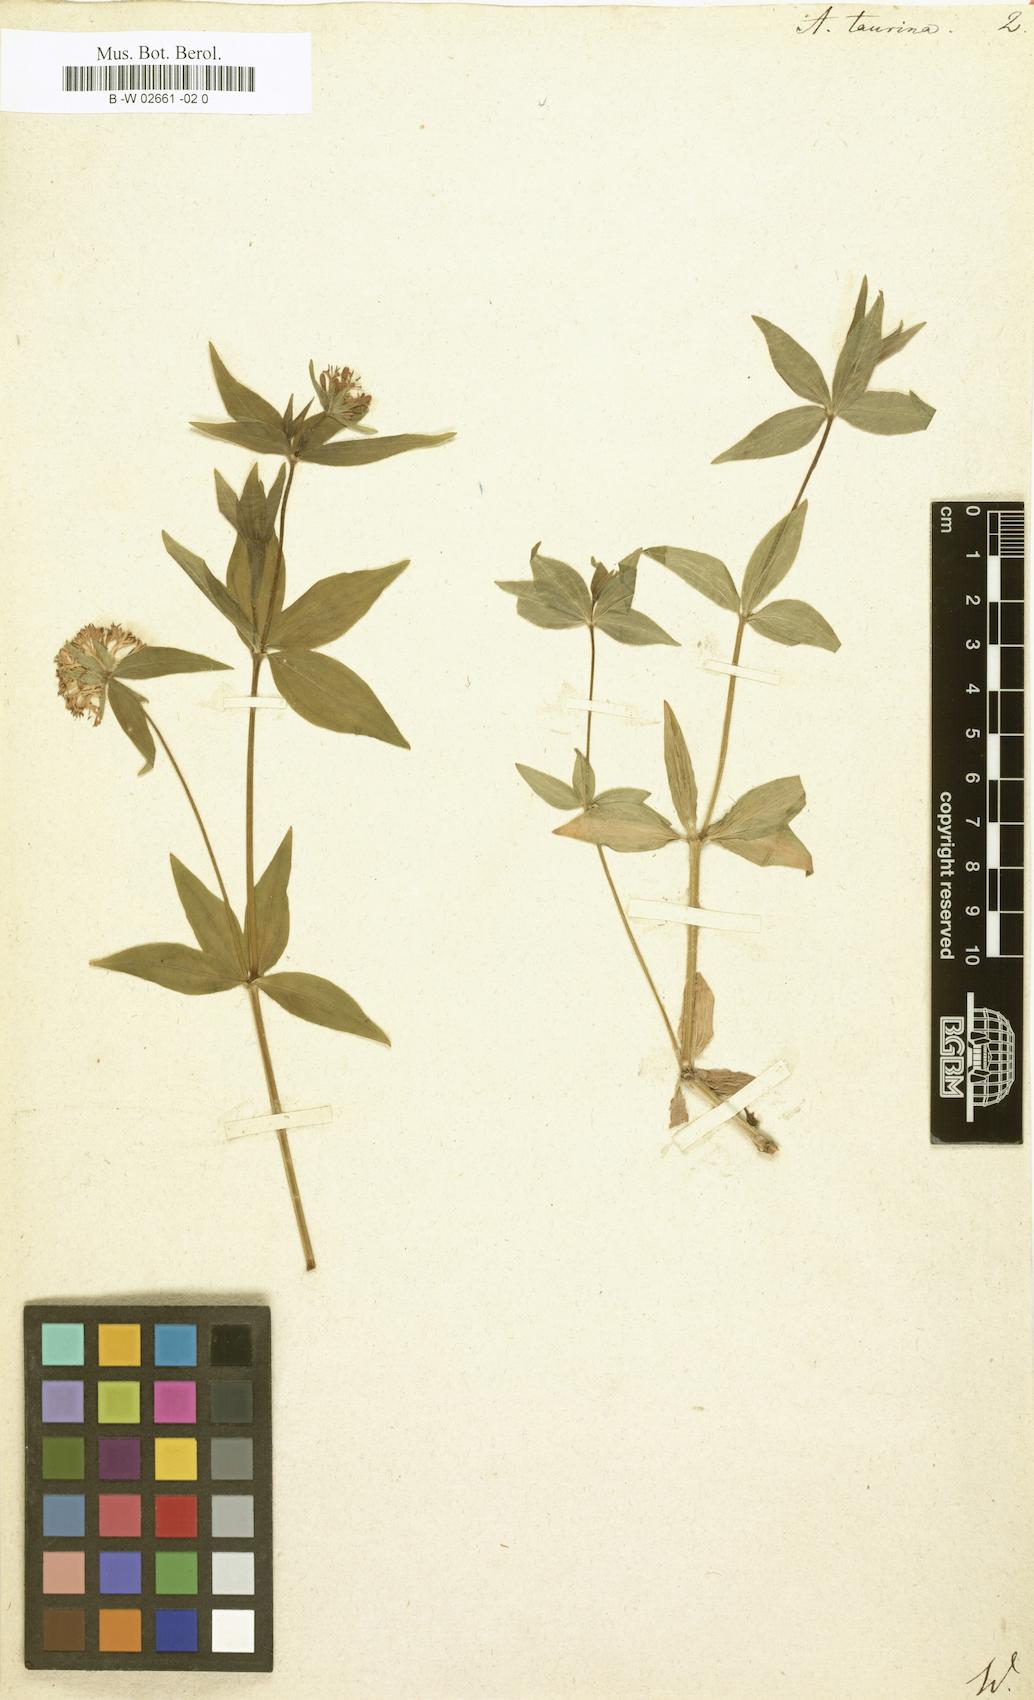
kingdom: Plantae
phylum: Tracheophyta
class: Magnoliopsida
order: Gentianales
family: Rubiaceae
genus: Asperula
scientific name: Asperula taurina
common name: Pink woodruff
